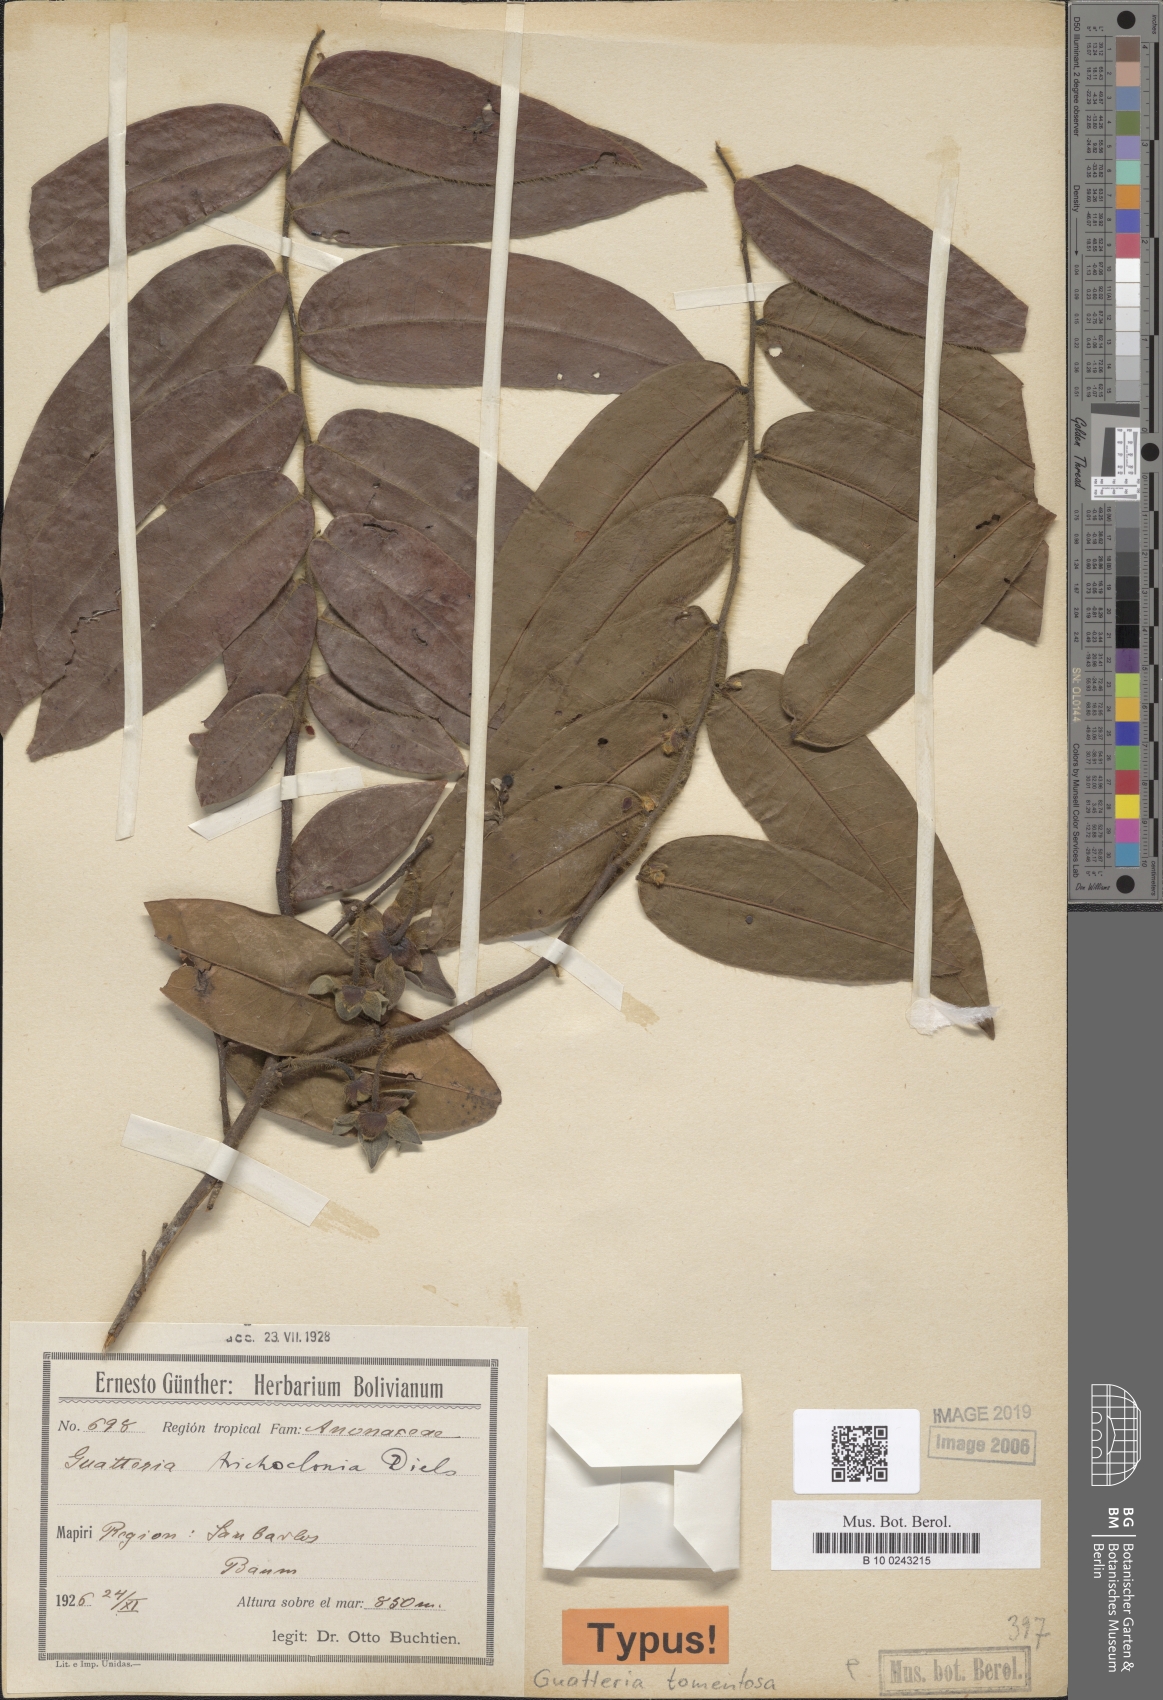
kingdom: Plantae
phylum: Tracheophyta
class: Magnoliopsida
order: Magnoliales
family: Annonaceae
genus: Guatteria
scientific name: Guatteria tomentosa
